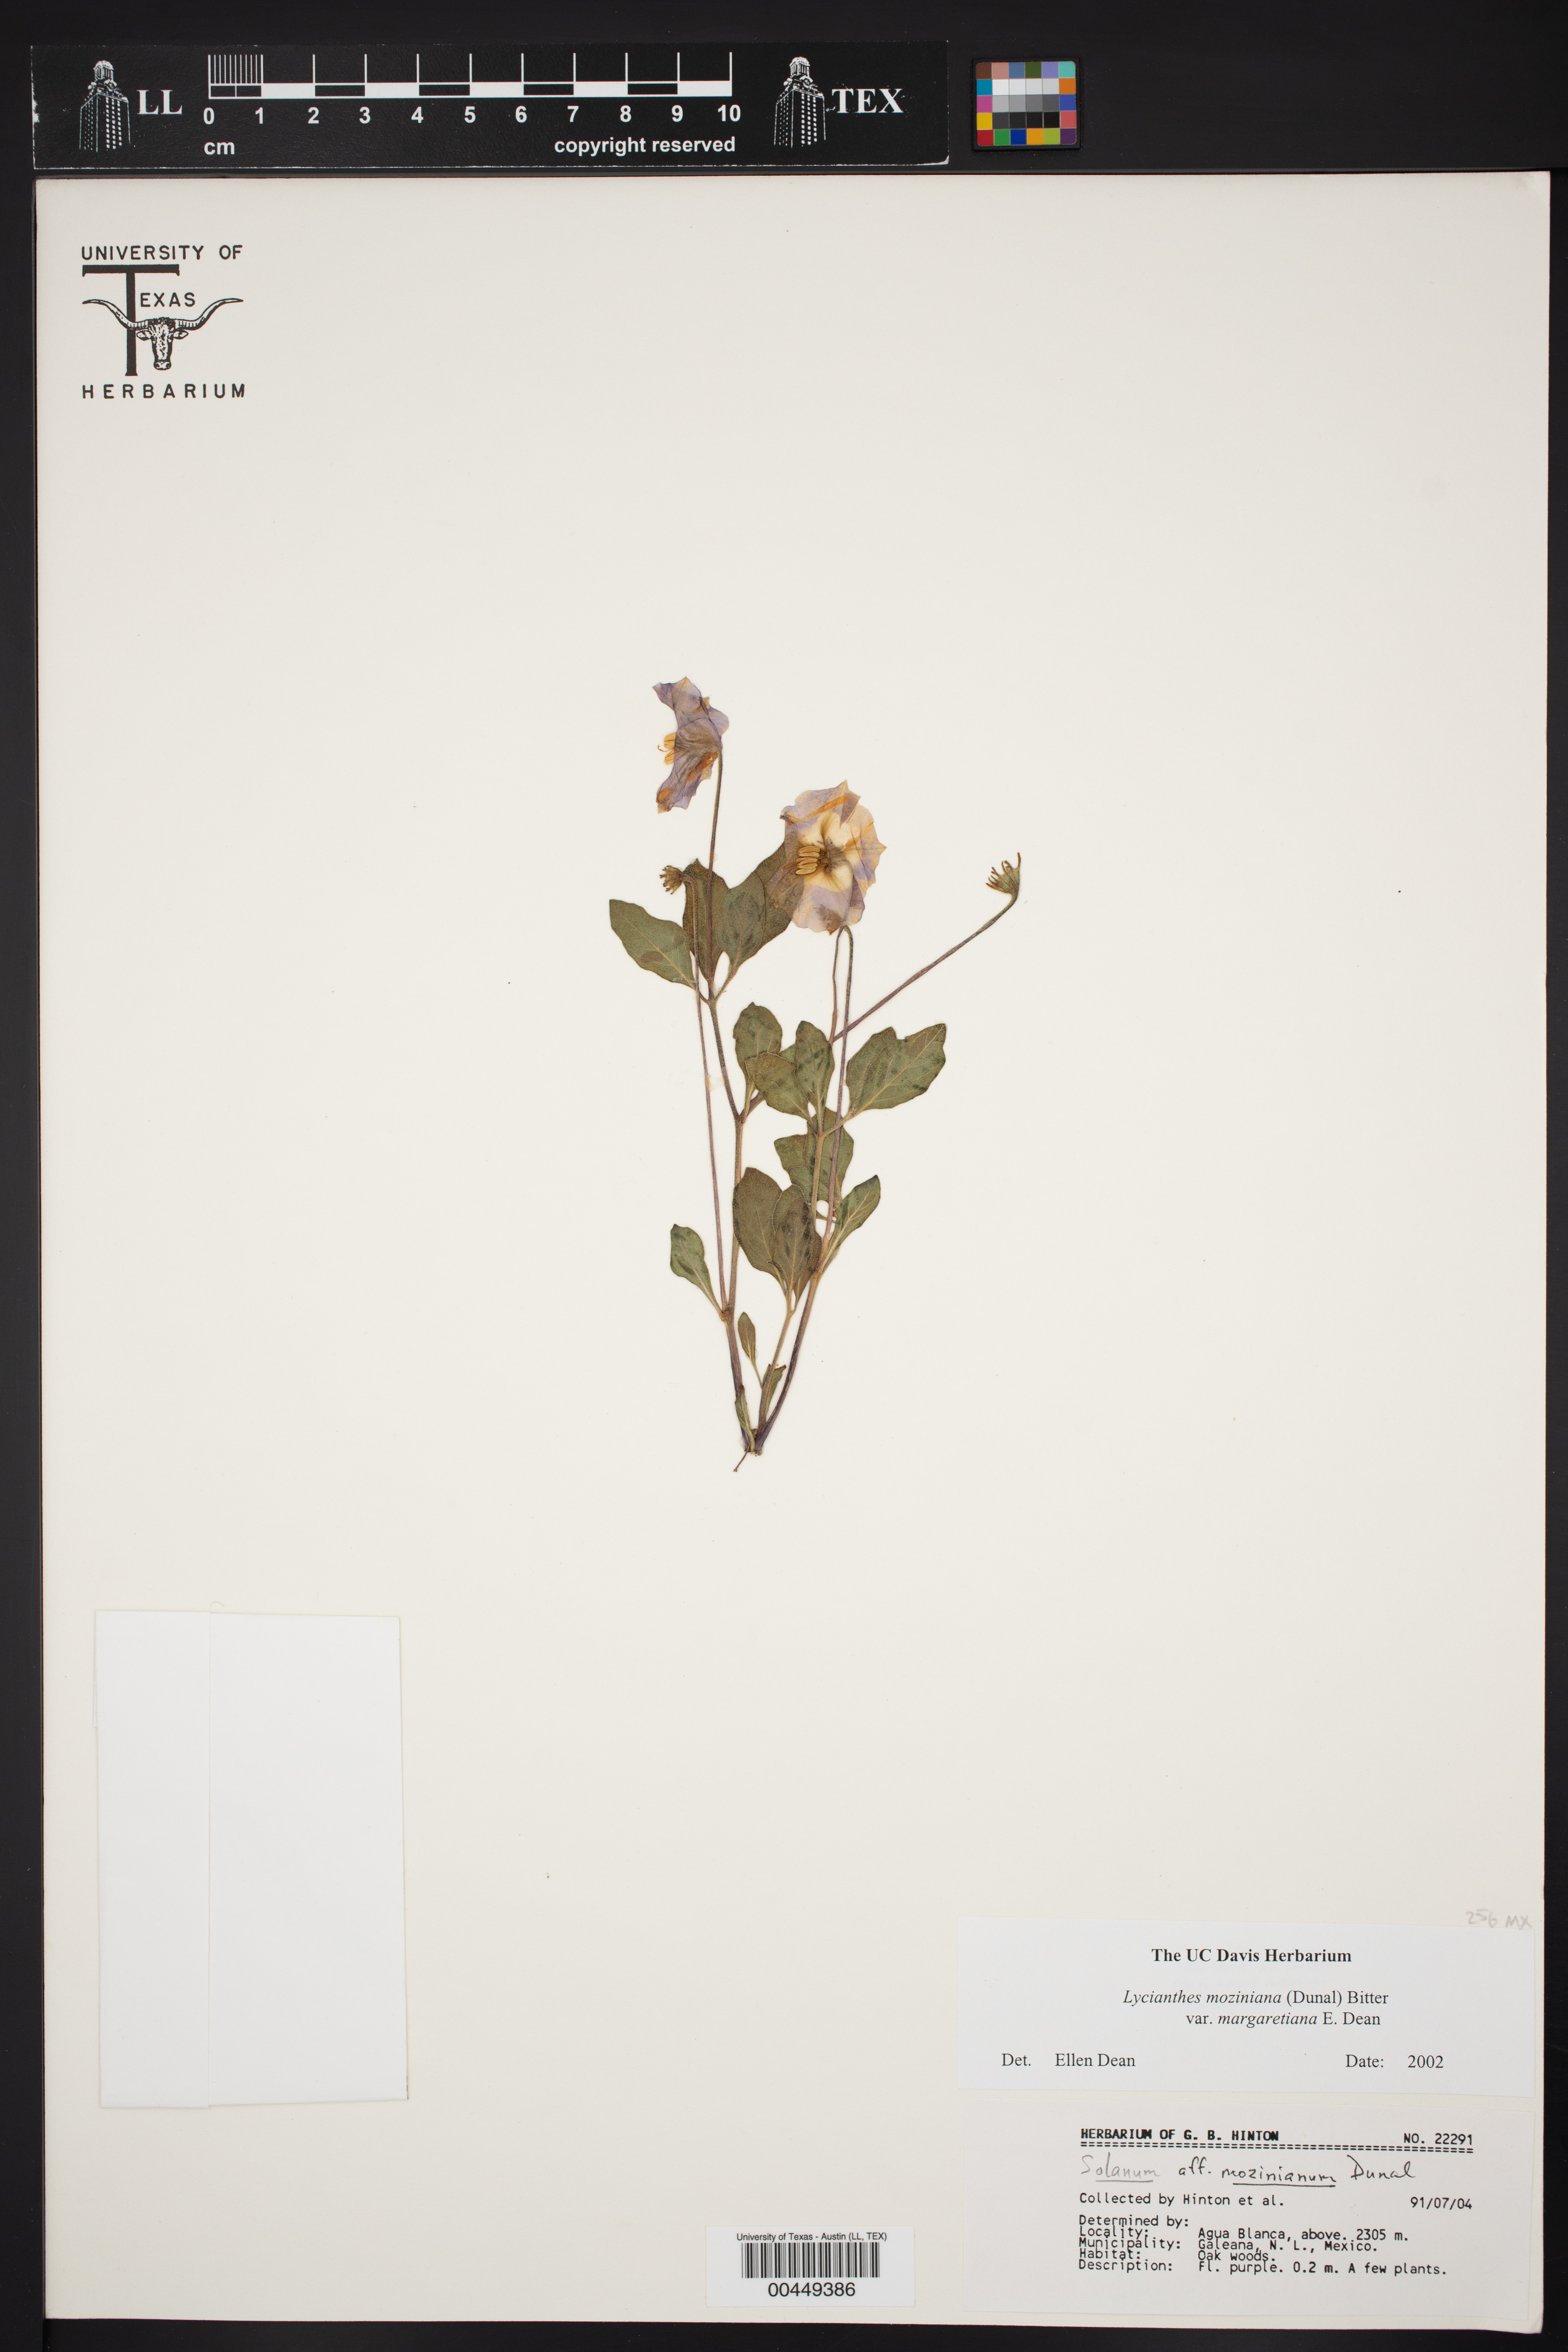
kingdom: Plantae
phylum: Tracheophyta
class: Magnoliopsida
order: Solanales
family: Solanaceae
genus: Lycianthes
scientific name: Lycianthes moziniana
